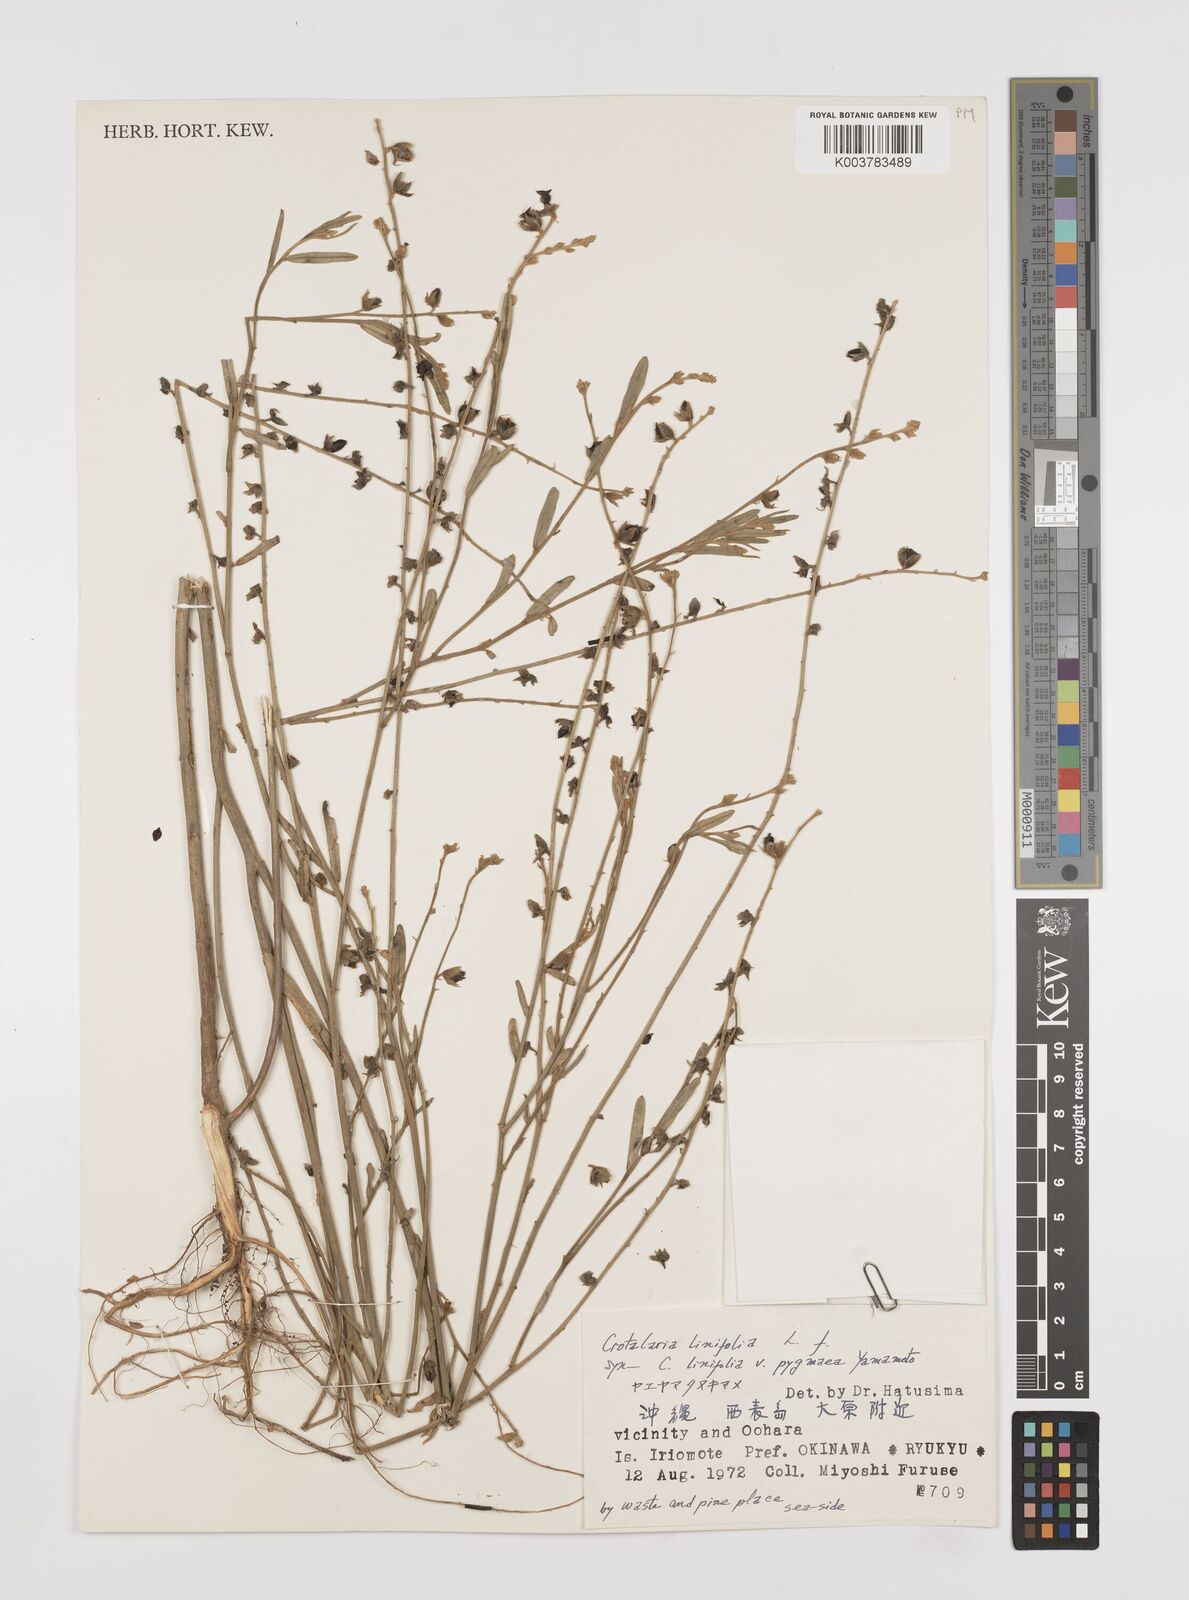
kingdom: Plantae
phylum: Tracheophyta
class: Magnoliopsida
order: Fabales
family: Fabaceae
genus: Crotalaria
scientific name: Crotalaria linifolia
